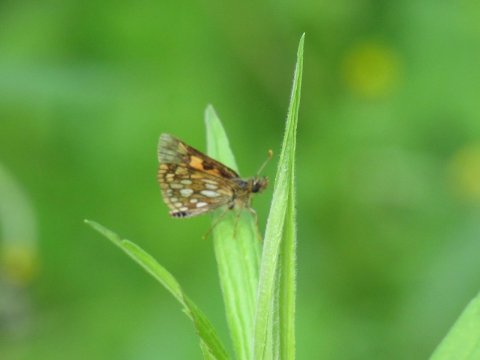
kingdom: Animalia
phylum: Arthropoda
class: Insecta
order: Lepidoptera
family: Hesperiidae
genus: Carterocephalus
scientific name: Carterocephalus palaemon
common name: Chequered Skipper
